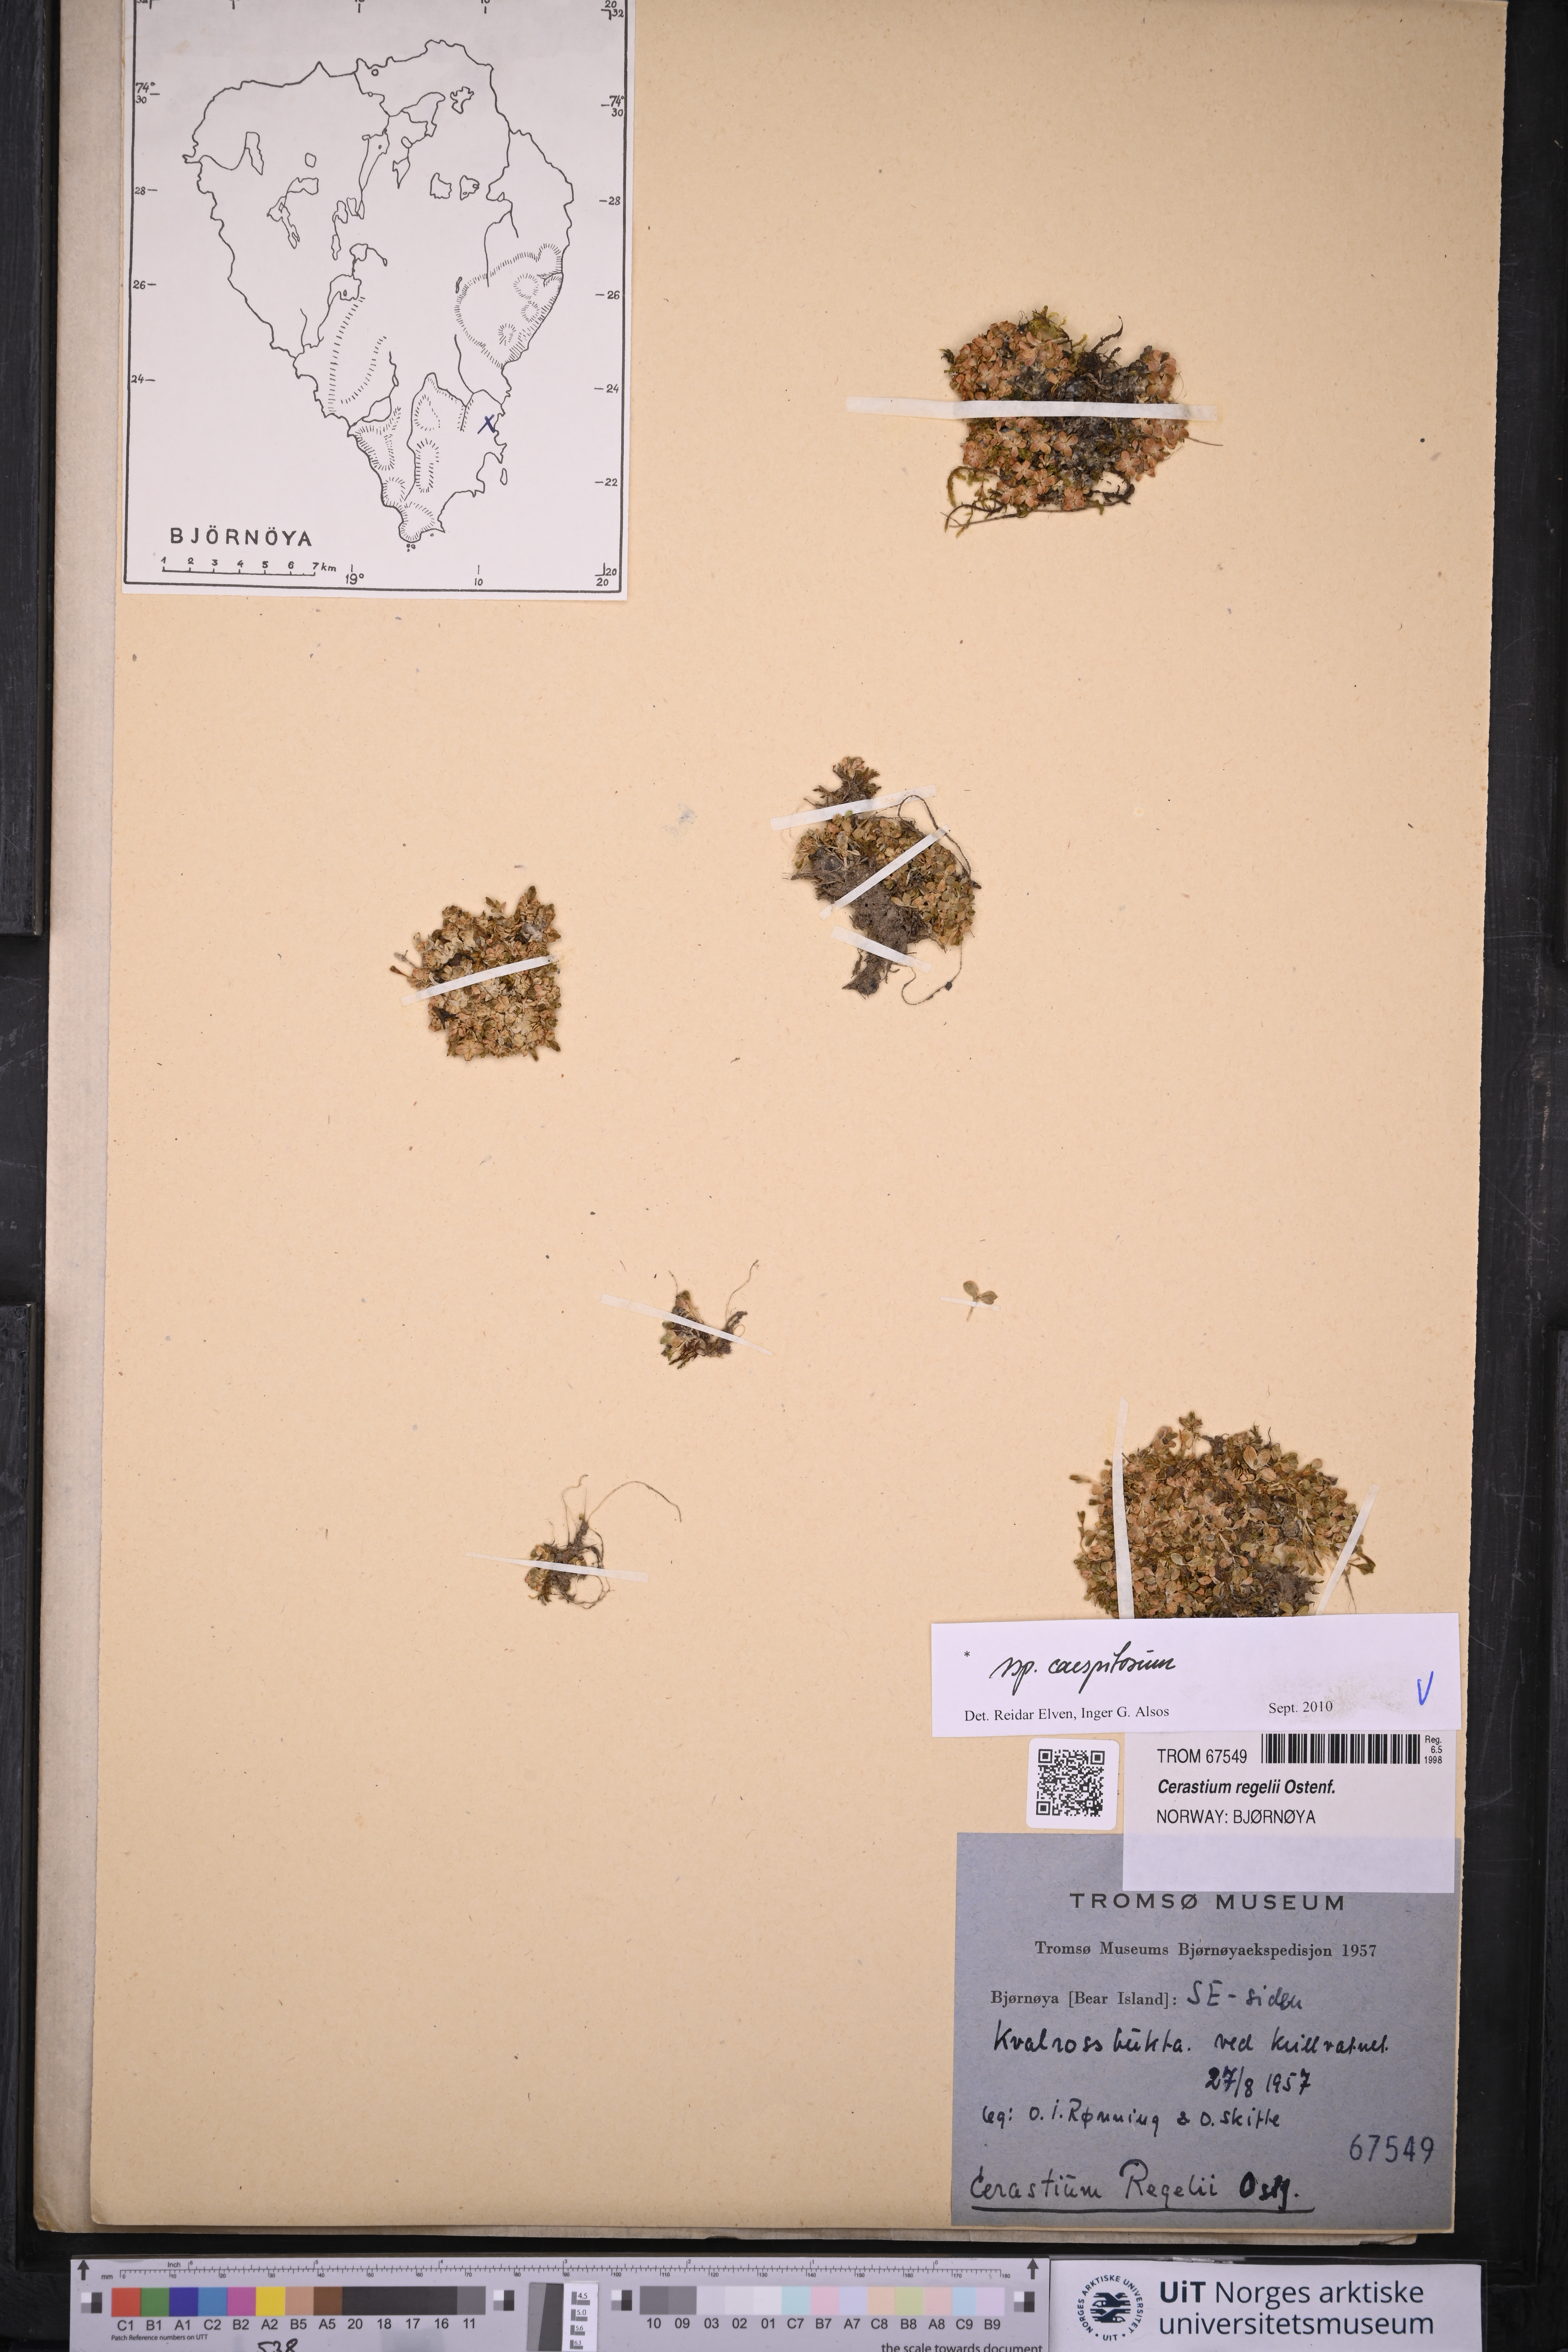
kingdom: Plantae
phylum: Tracheophyta
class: Magnoliopsida
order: Caryophyllales
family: Caryophyllaceae
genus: Cerastium
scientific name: Cerastium regelii
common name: Regel's chickweed
